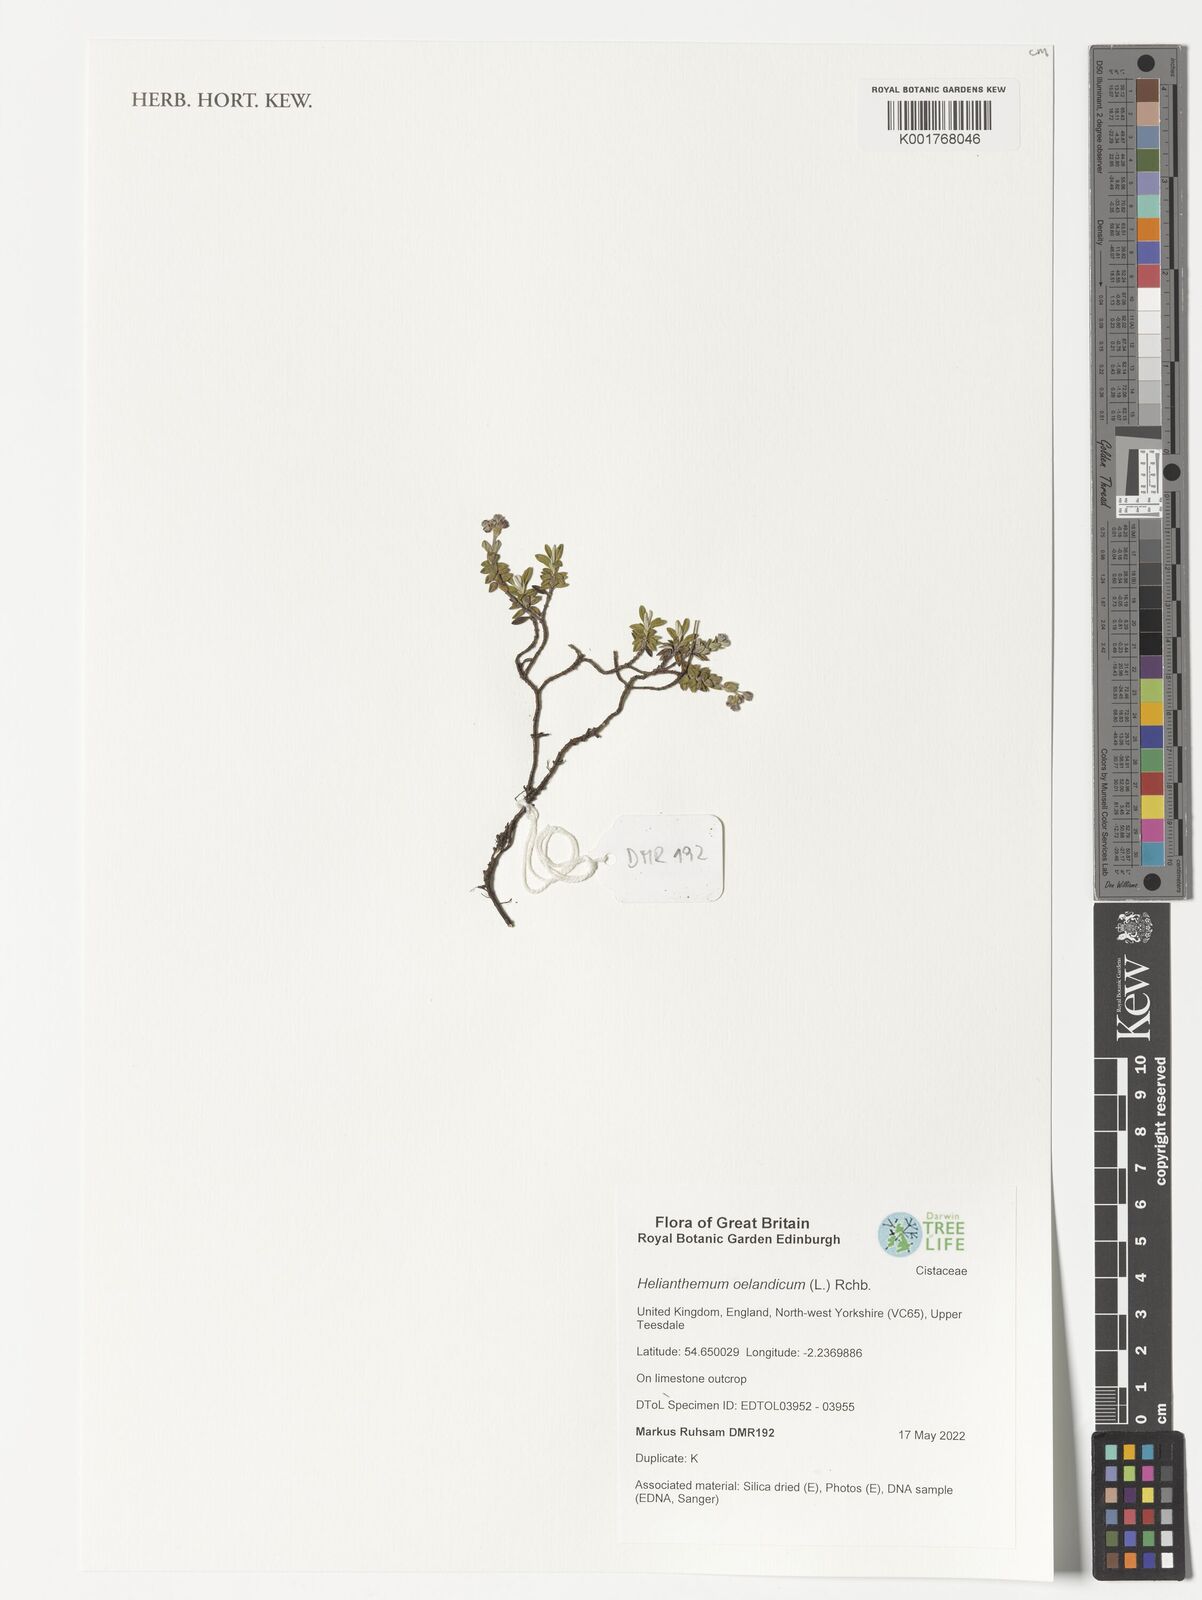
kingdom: Plantae
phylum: Tracheophyta
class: Magnoliopsida
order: Malvales
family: Cistaceae
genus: Helianthemum
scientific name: Helianthemum oelandicum
